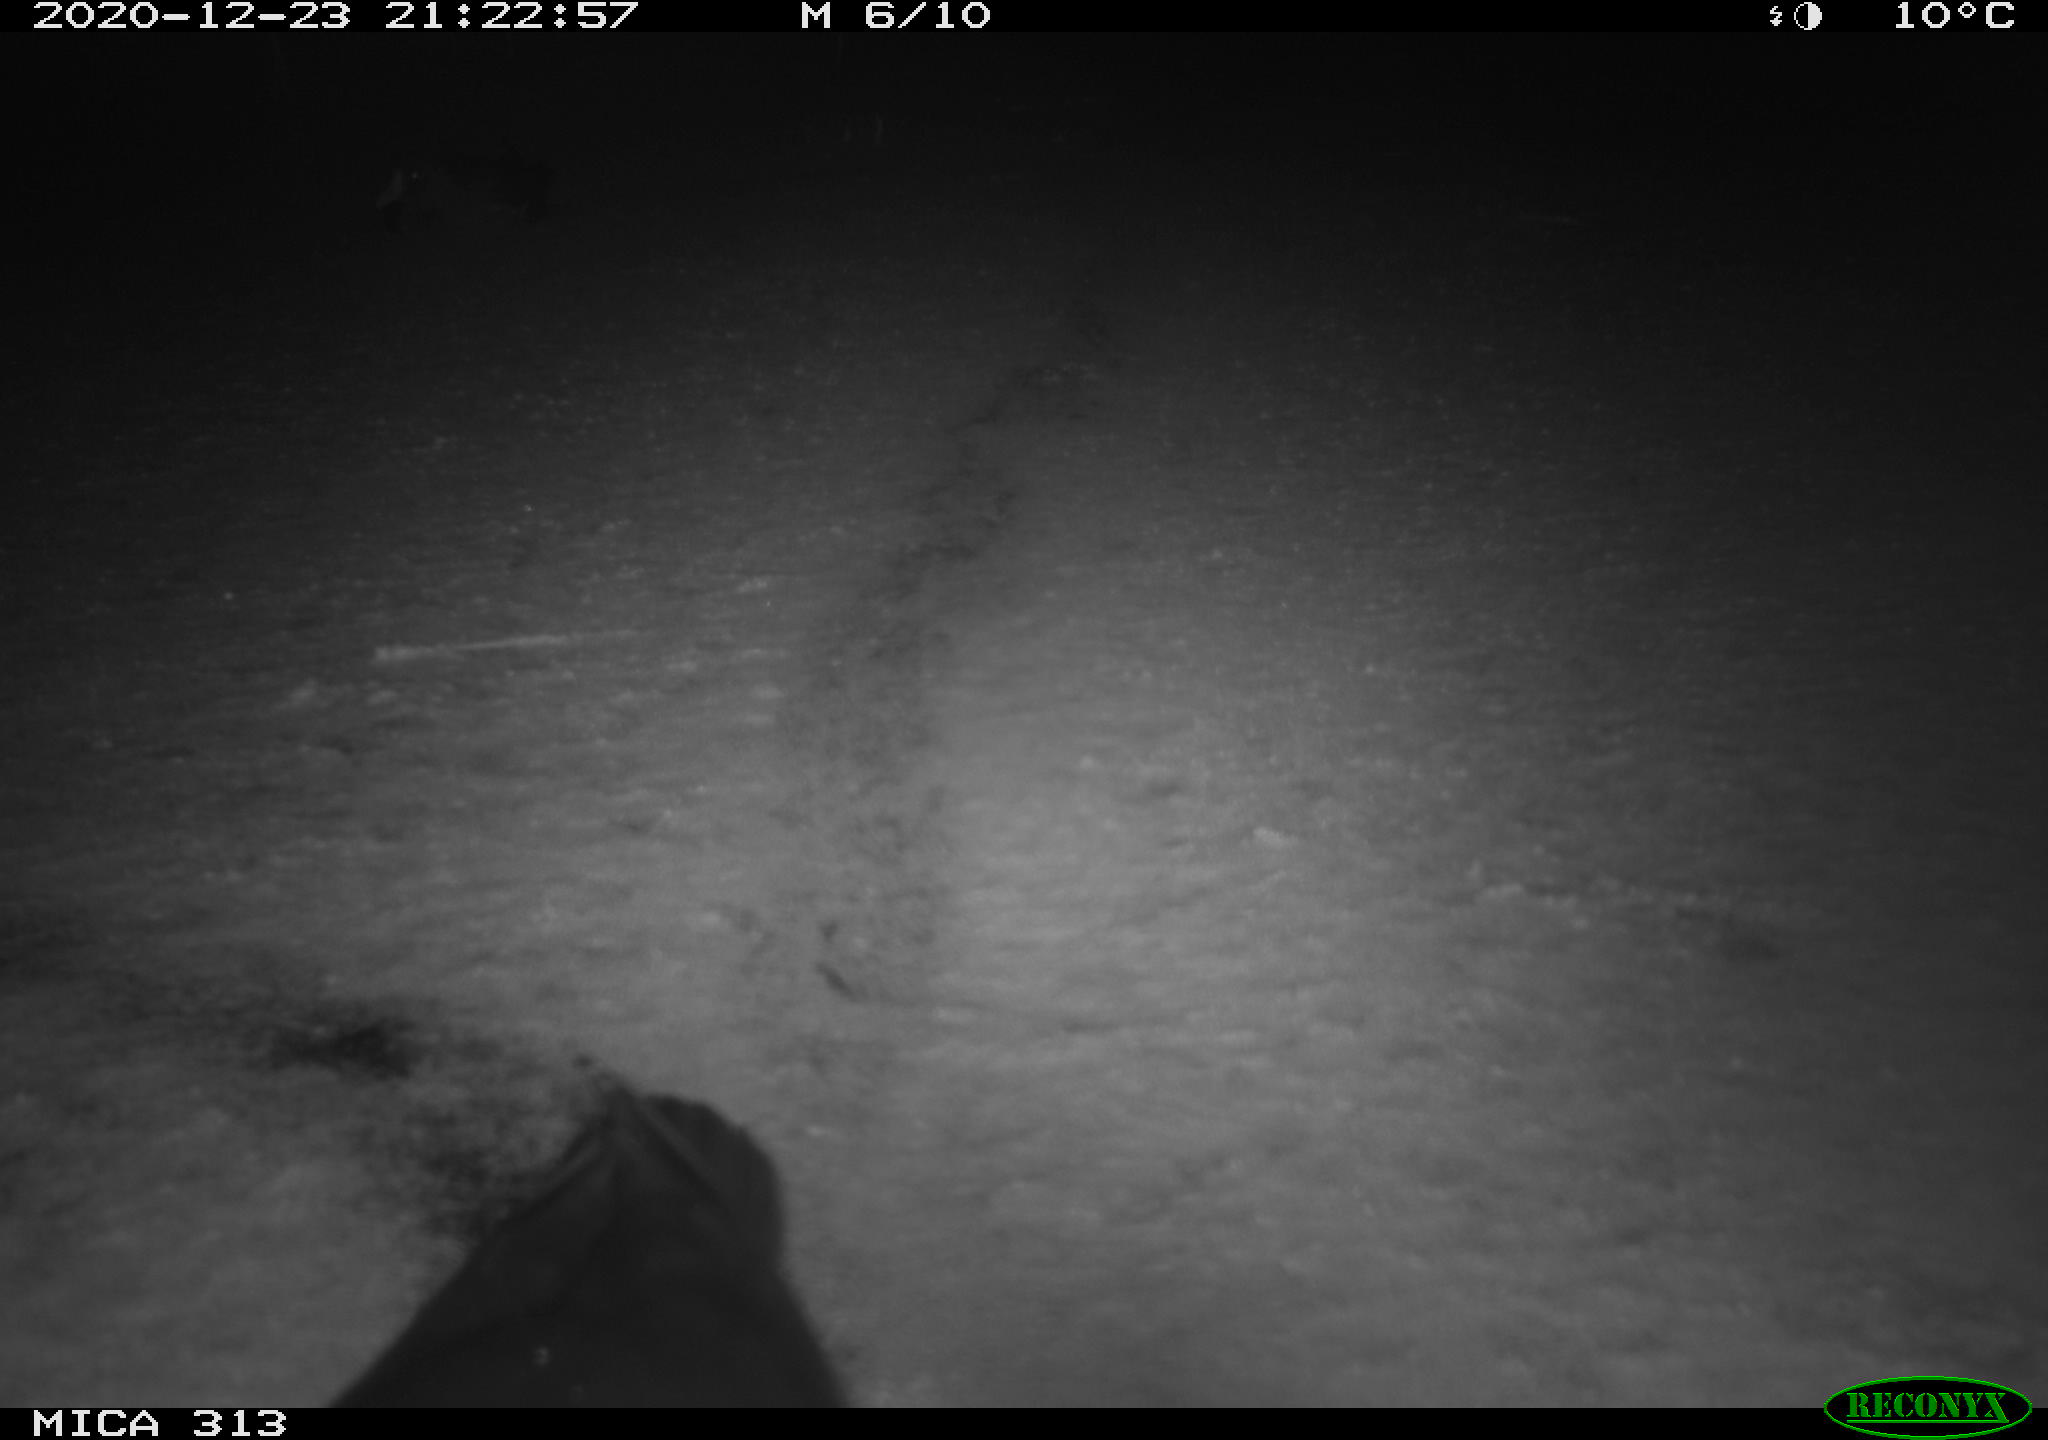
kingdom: Animalia
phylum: Chordata
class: Aves
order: Gruiformes
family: Rallidae
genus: Gallinula
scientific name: Gallinula chloropus
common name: Common moorhen
